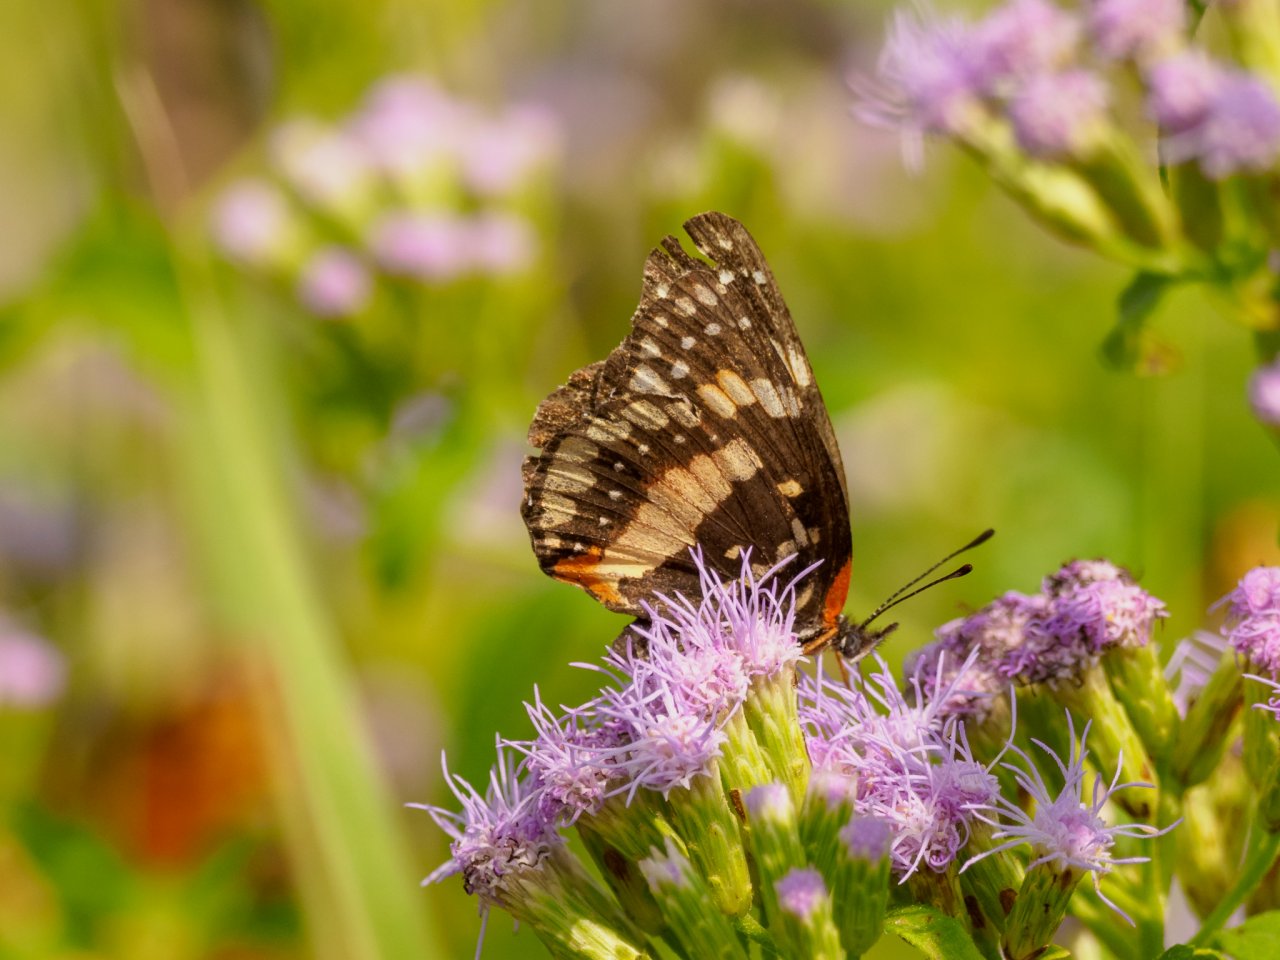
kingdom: Animalia
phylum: Arthropoda
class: Insecta
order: Lepidoptera
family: Nymphalidae
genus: Chlosyne
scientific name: Chlosyne lacinia
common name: Bordered Patch
